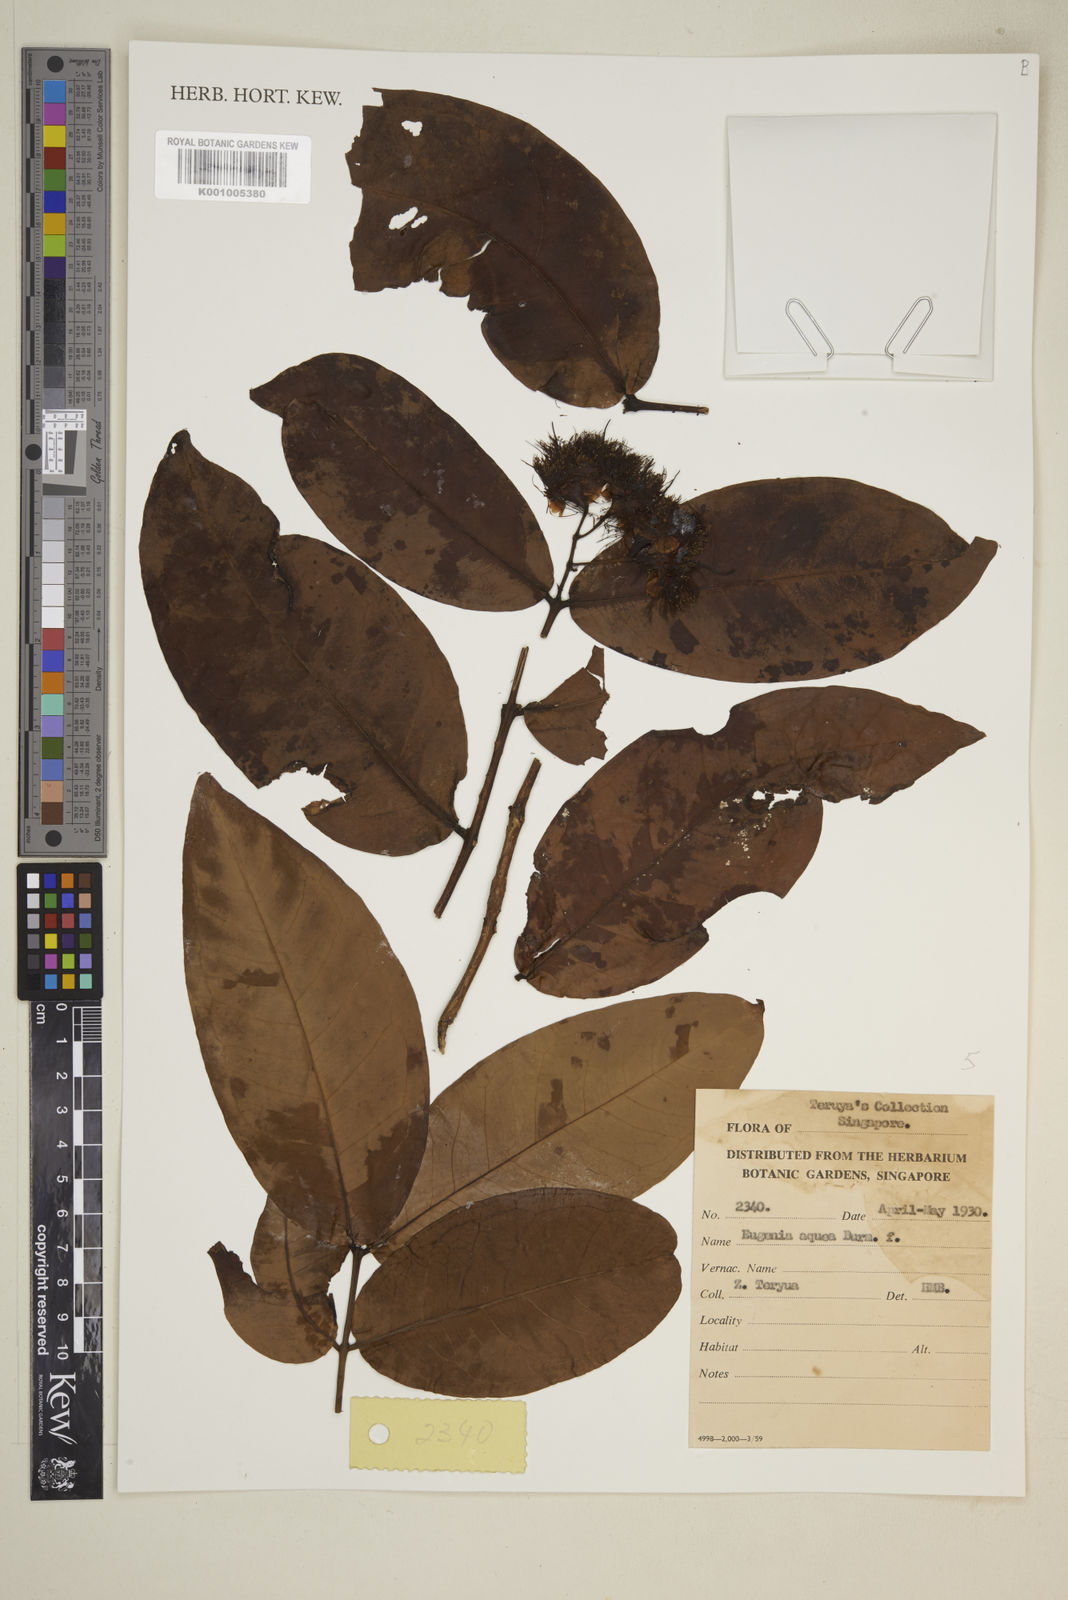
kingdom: Plantae
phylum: Tracheophyta
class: Magnoliopsida
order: Myrtales
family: Myrtaceae
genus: Syzygium
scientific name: Syzygium aqueum
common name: Water-apple
